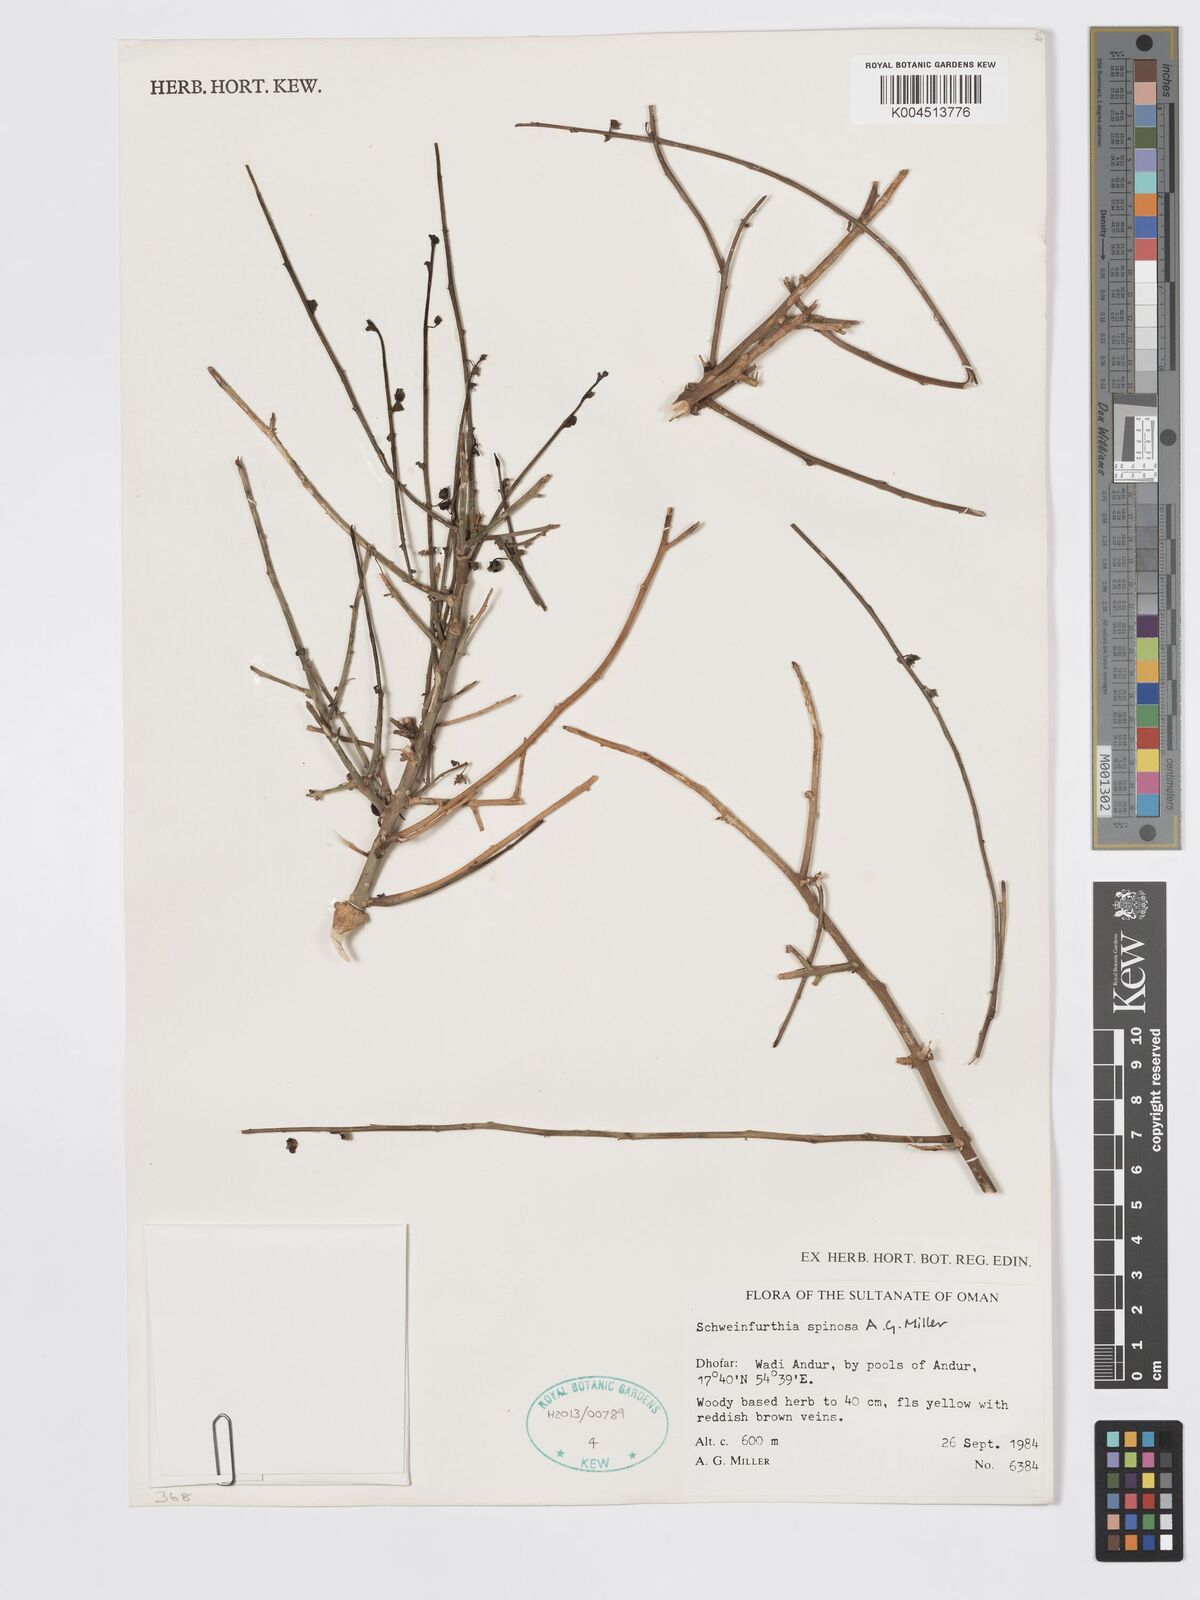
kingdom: Plantae
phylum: Tracheophyta
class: Magnoliopsida
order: Lamiales
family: Plantaginaceae
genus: Schweinfurthia
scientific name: Schweinfurthia spinosa
